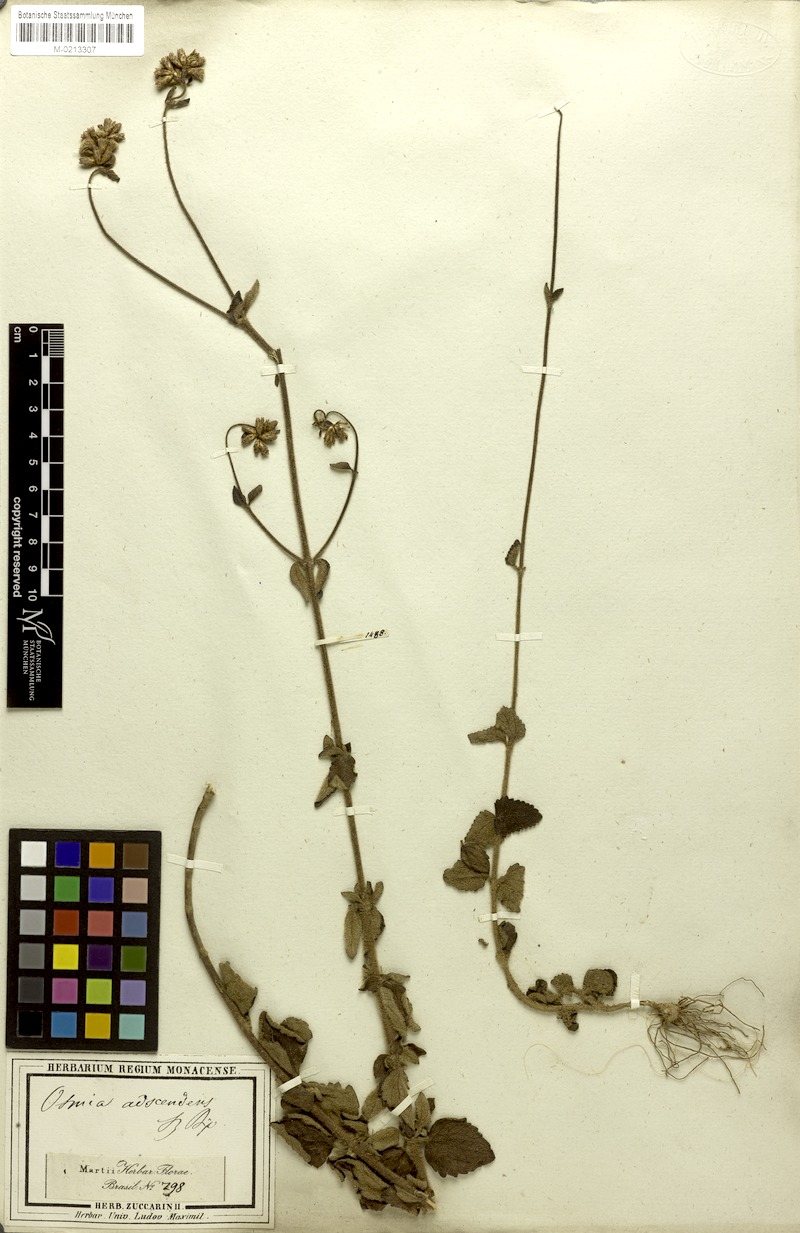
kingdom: Plantae
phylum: Tracheophyta
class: Magnoliopsida
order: Asterales
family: Asteraceae
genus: Chromolaena
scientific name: Chromolaena squarrulosa
